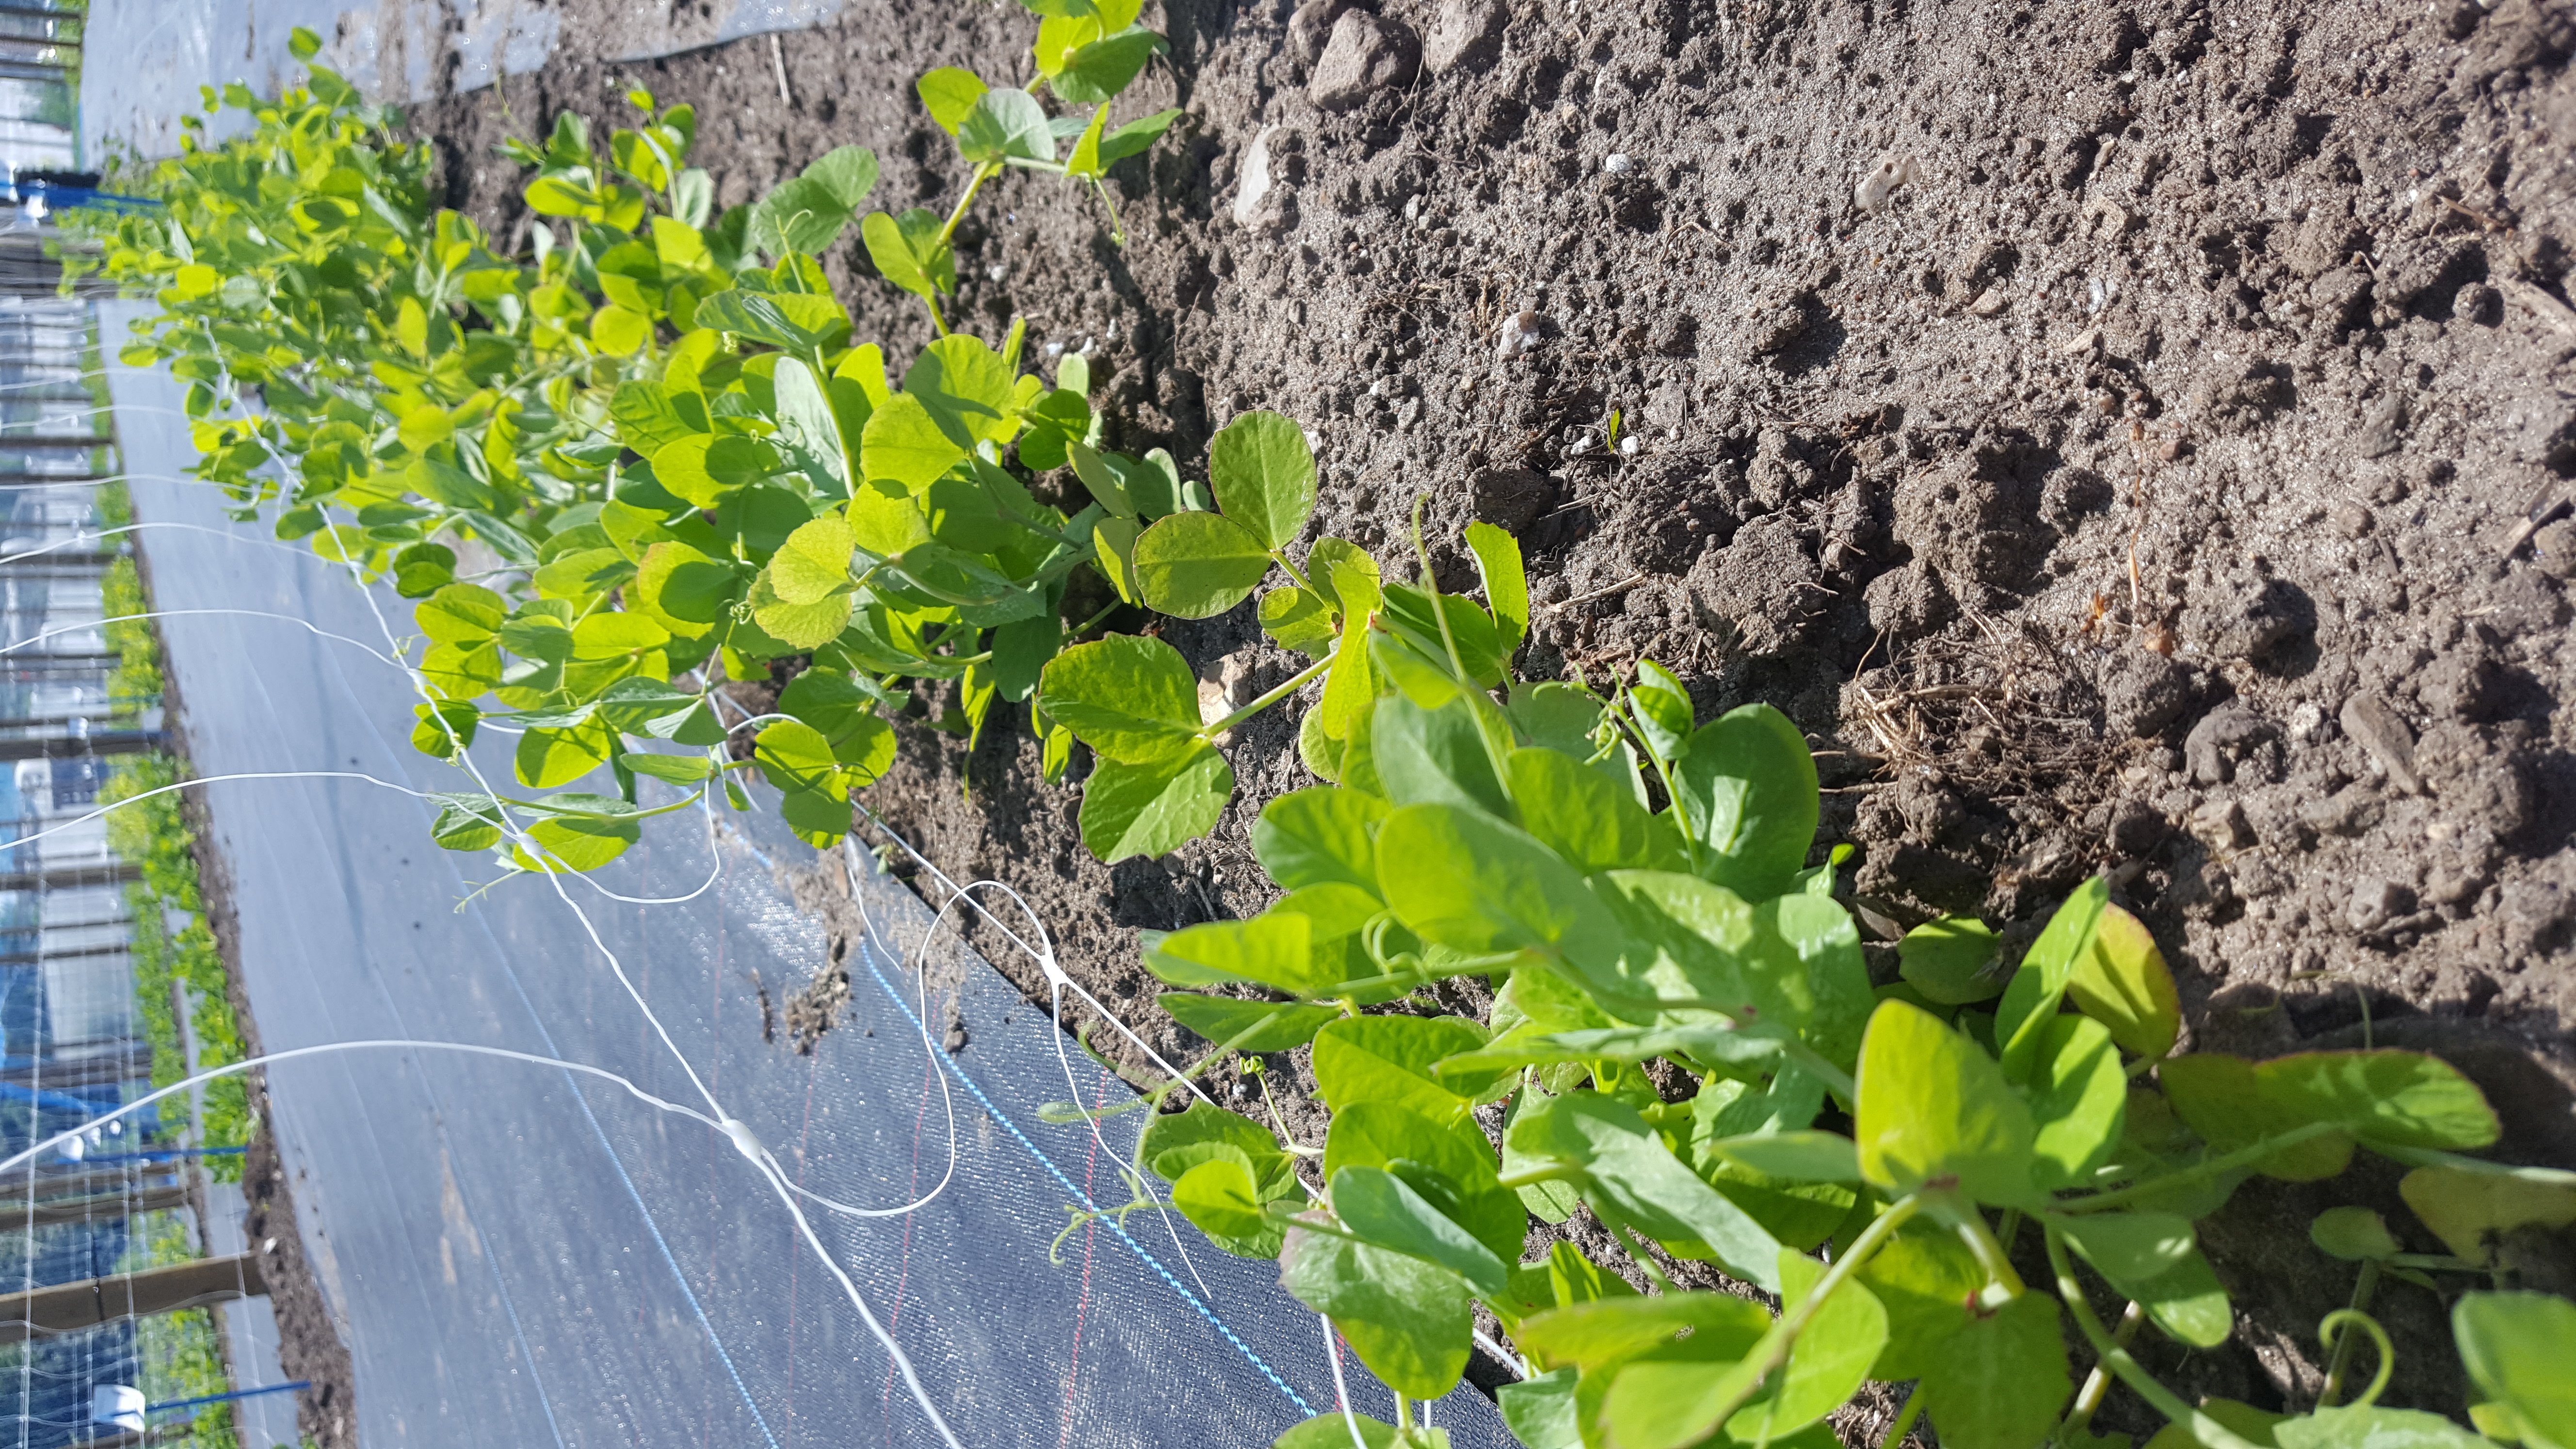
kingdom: Plantae
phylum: Tracheophyta
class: Magnoliopsida
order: Fabales
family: Fabaceae
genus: Lathyrus
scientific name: Lathyrus oleraceus
